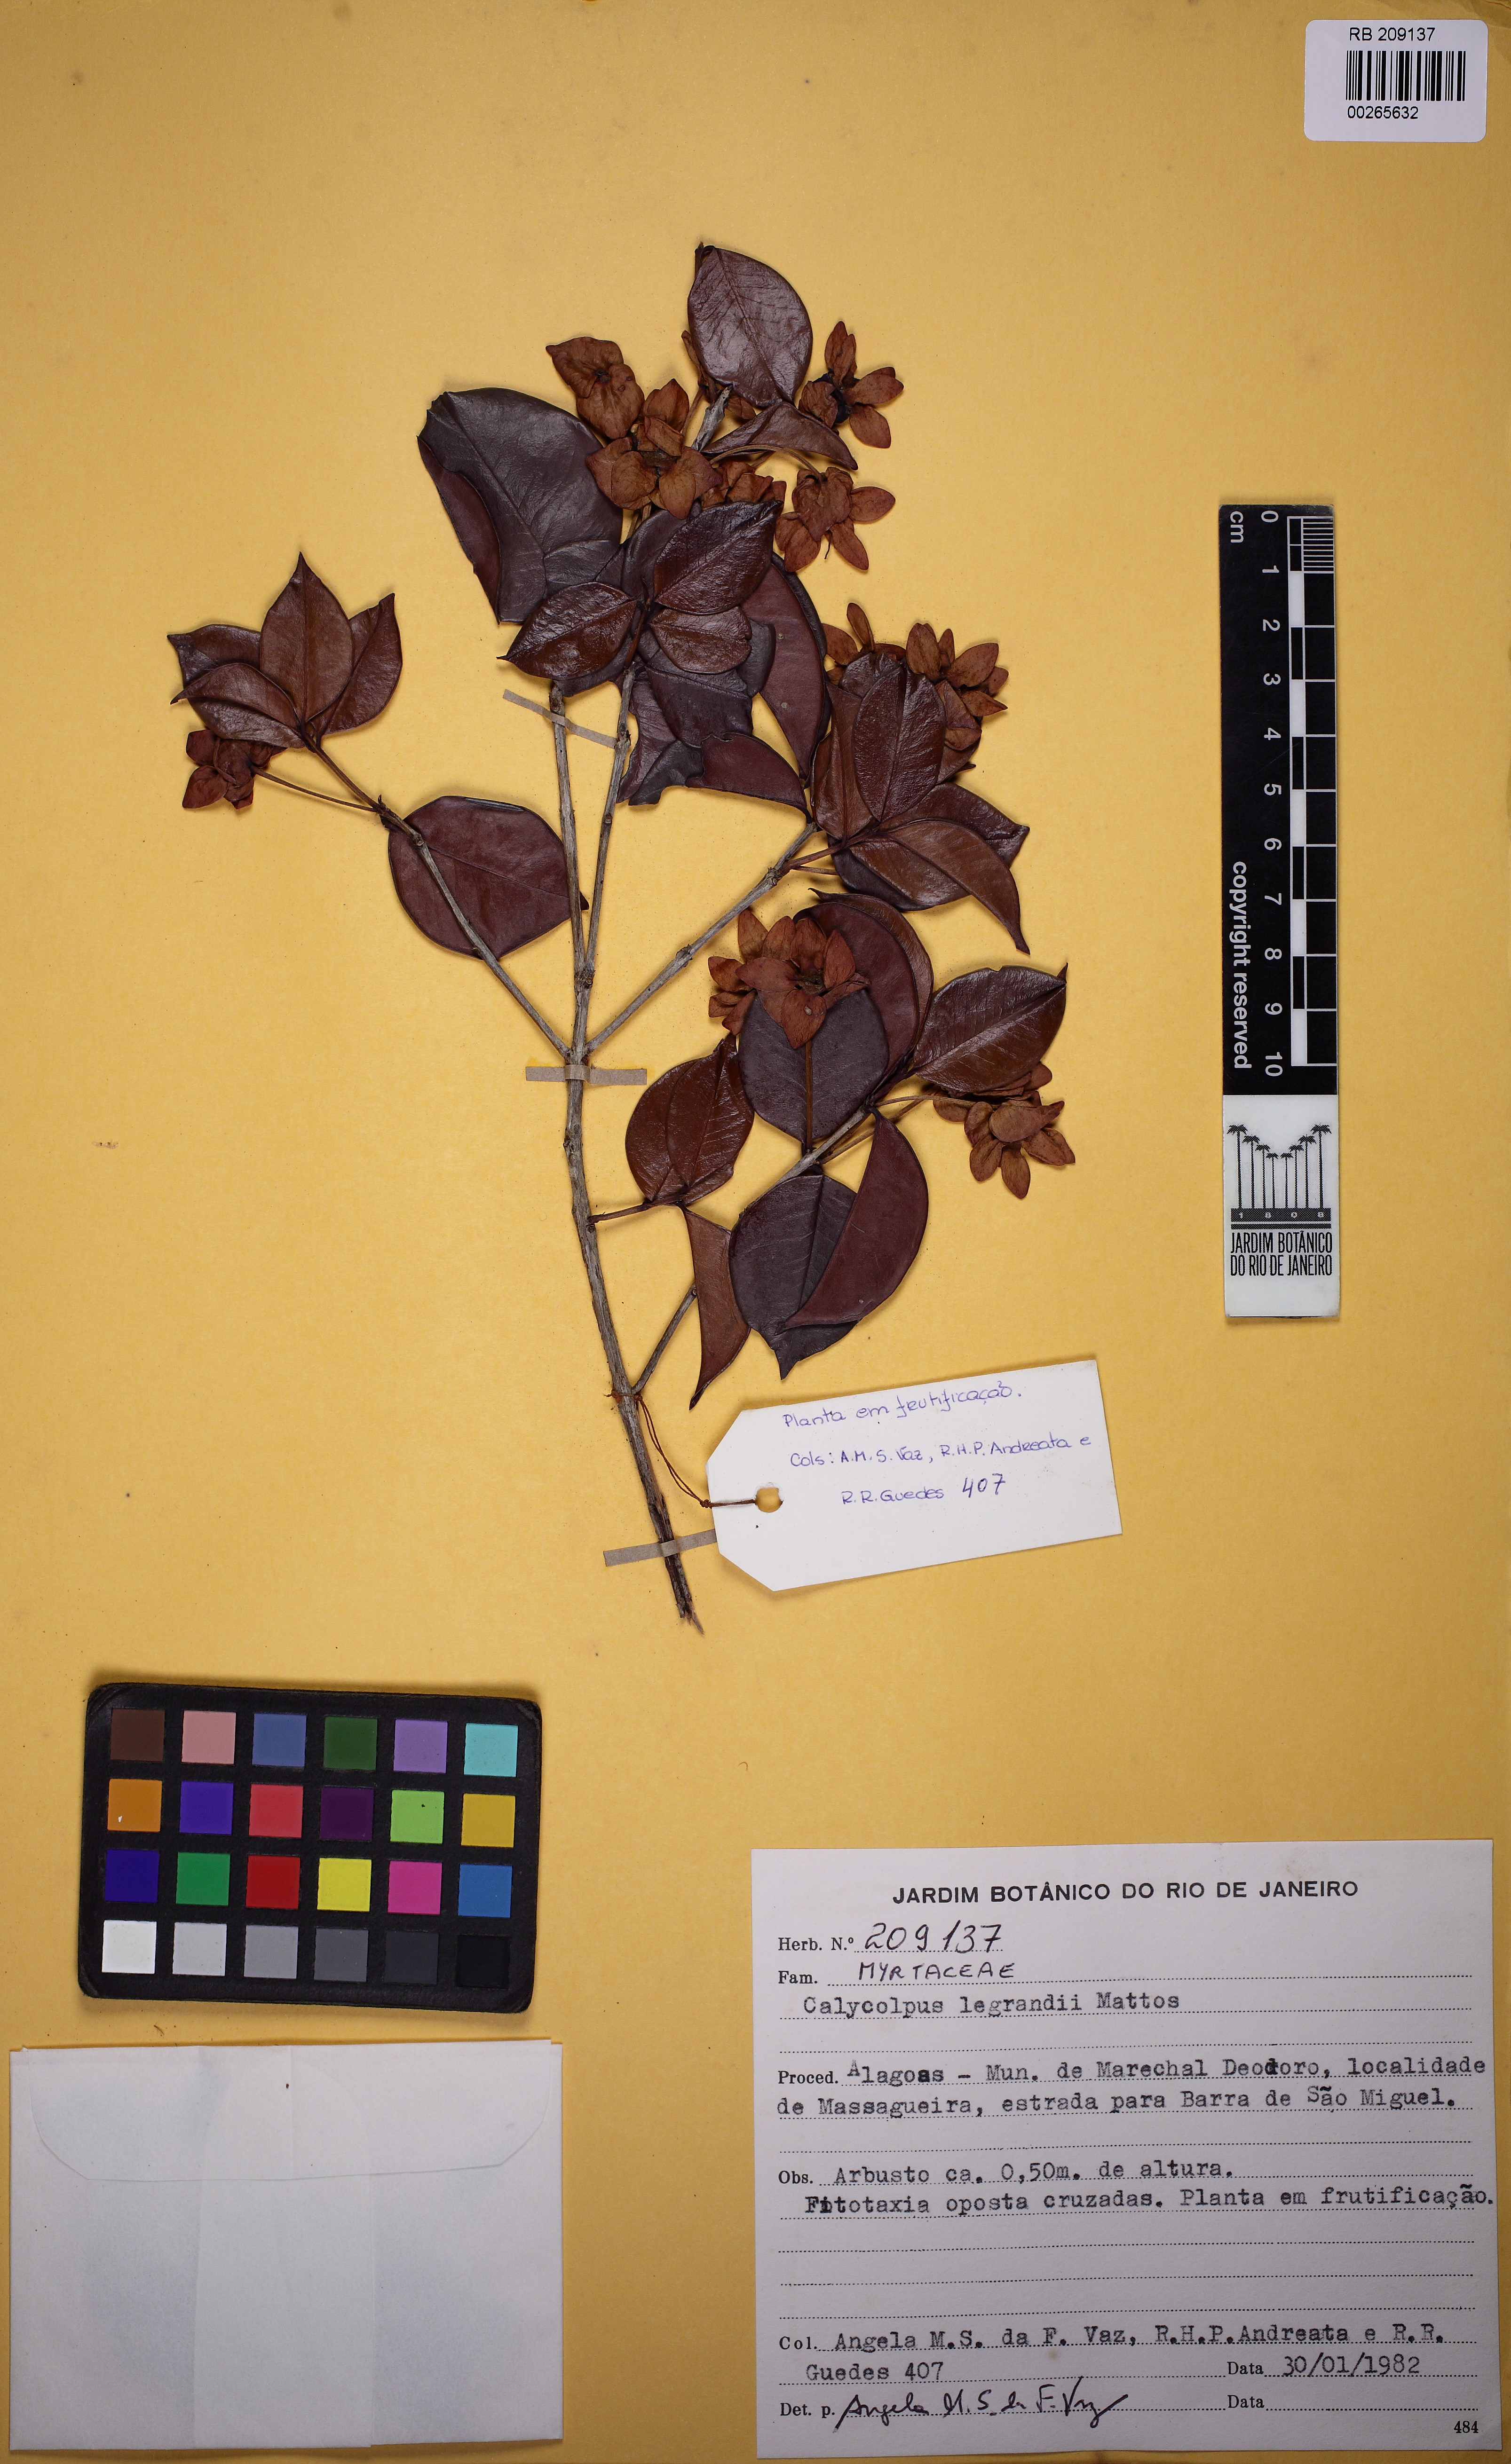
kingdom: Plantae
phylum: Tracheophyta
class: Magnoliopsida
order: Myrtales
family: Myrtaceae
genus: Calycolpus
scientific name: Calycolpus legrandii
